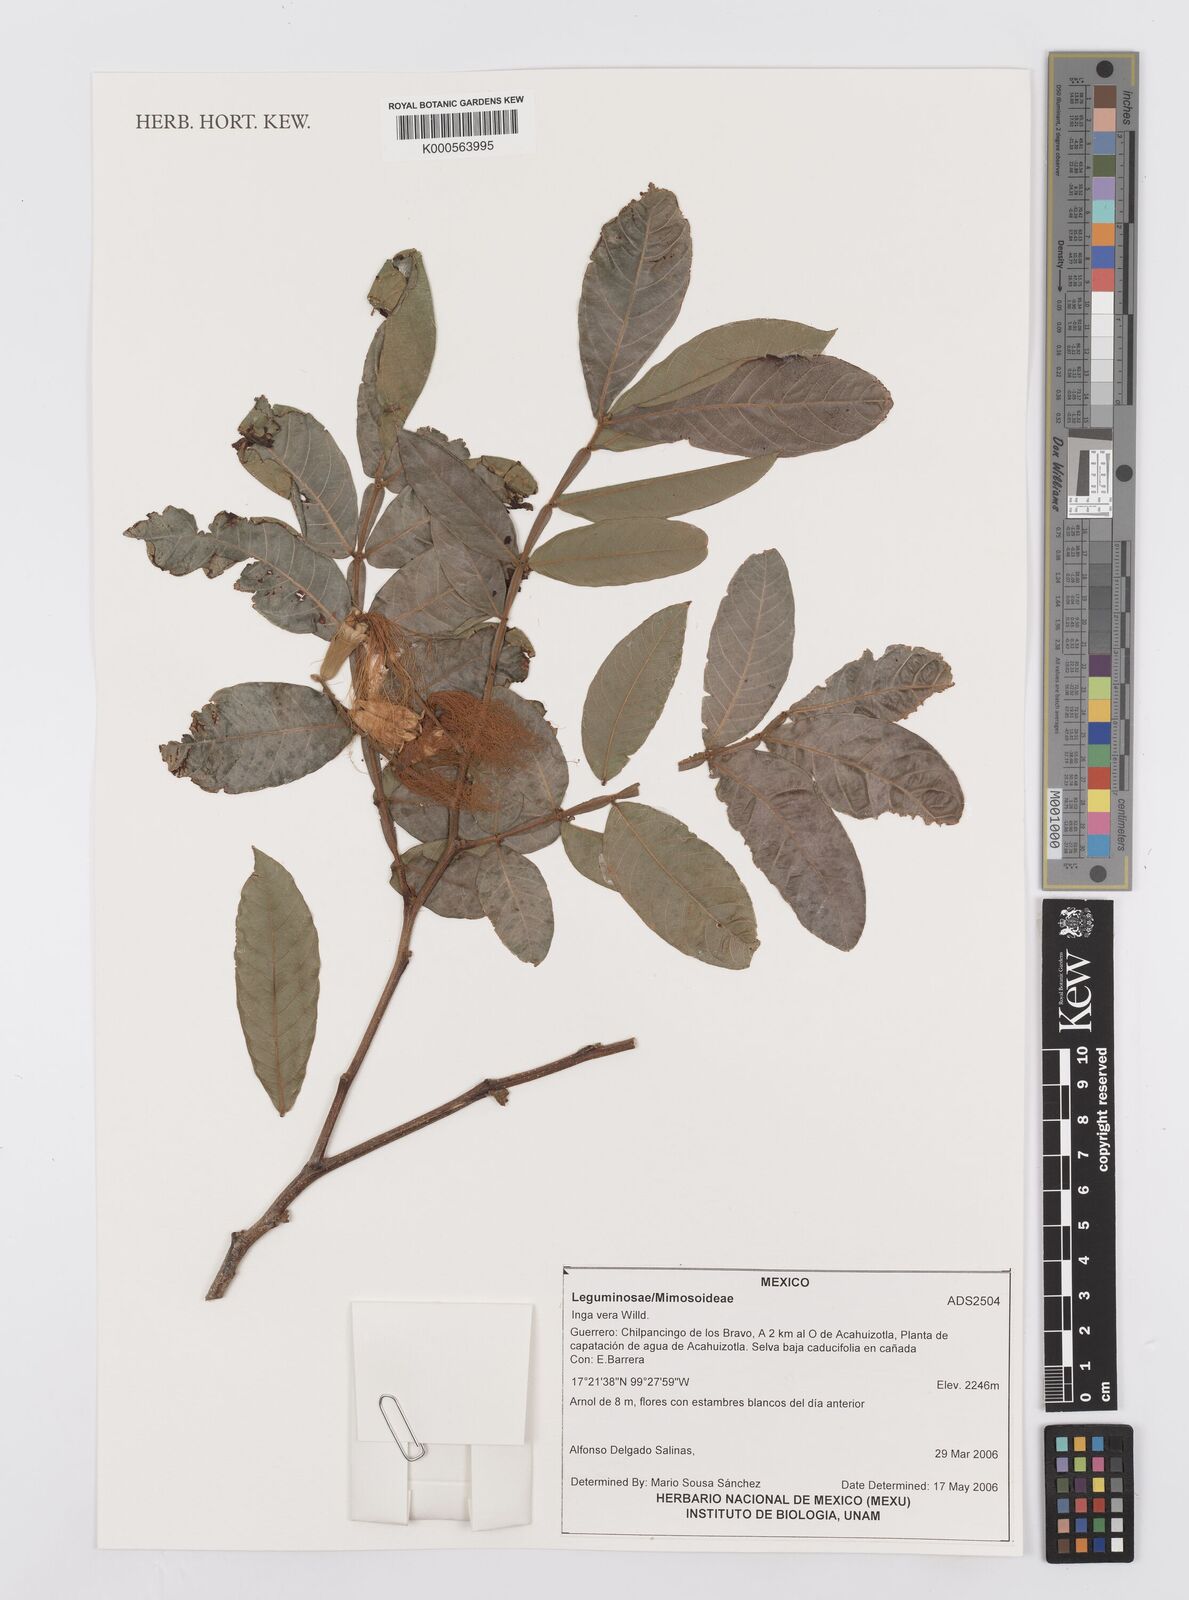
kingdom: Plantae
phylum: Tracheophyta
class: Magnoliopsida
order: Fabales
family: Fabaceae
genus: Inga
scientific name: Inga vera
